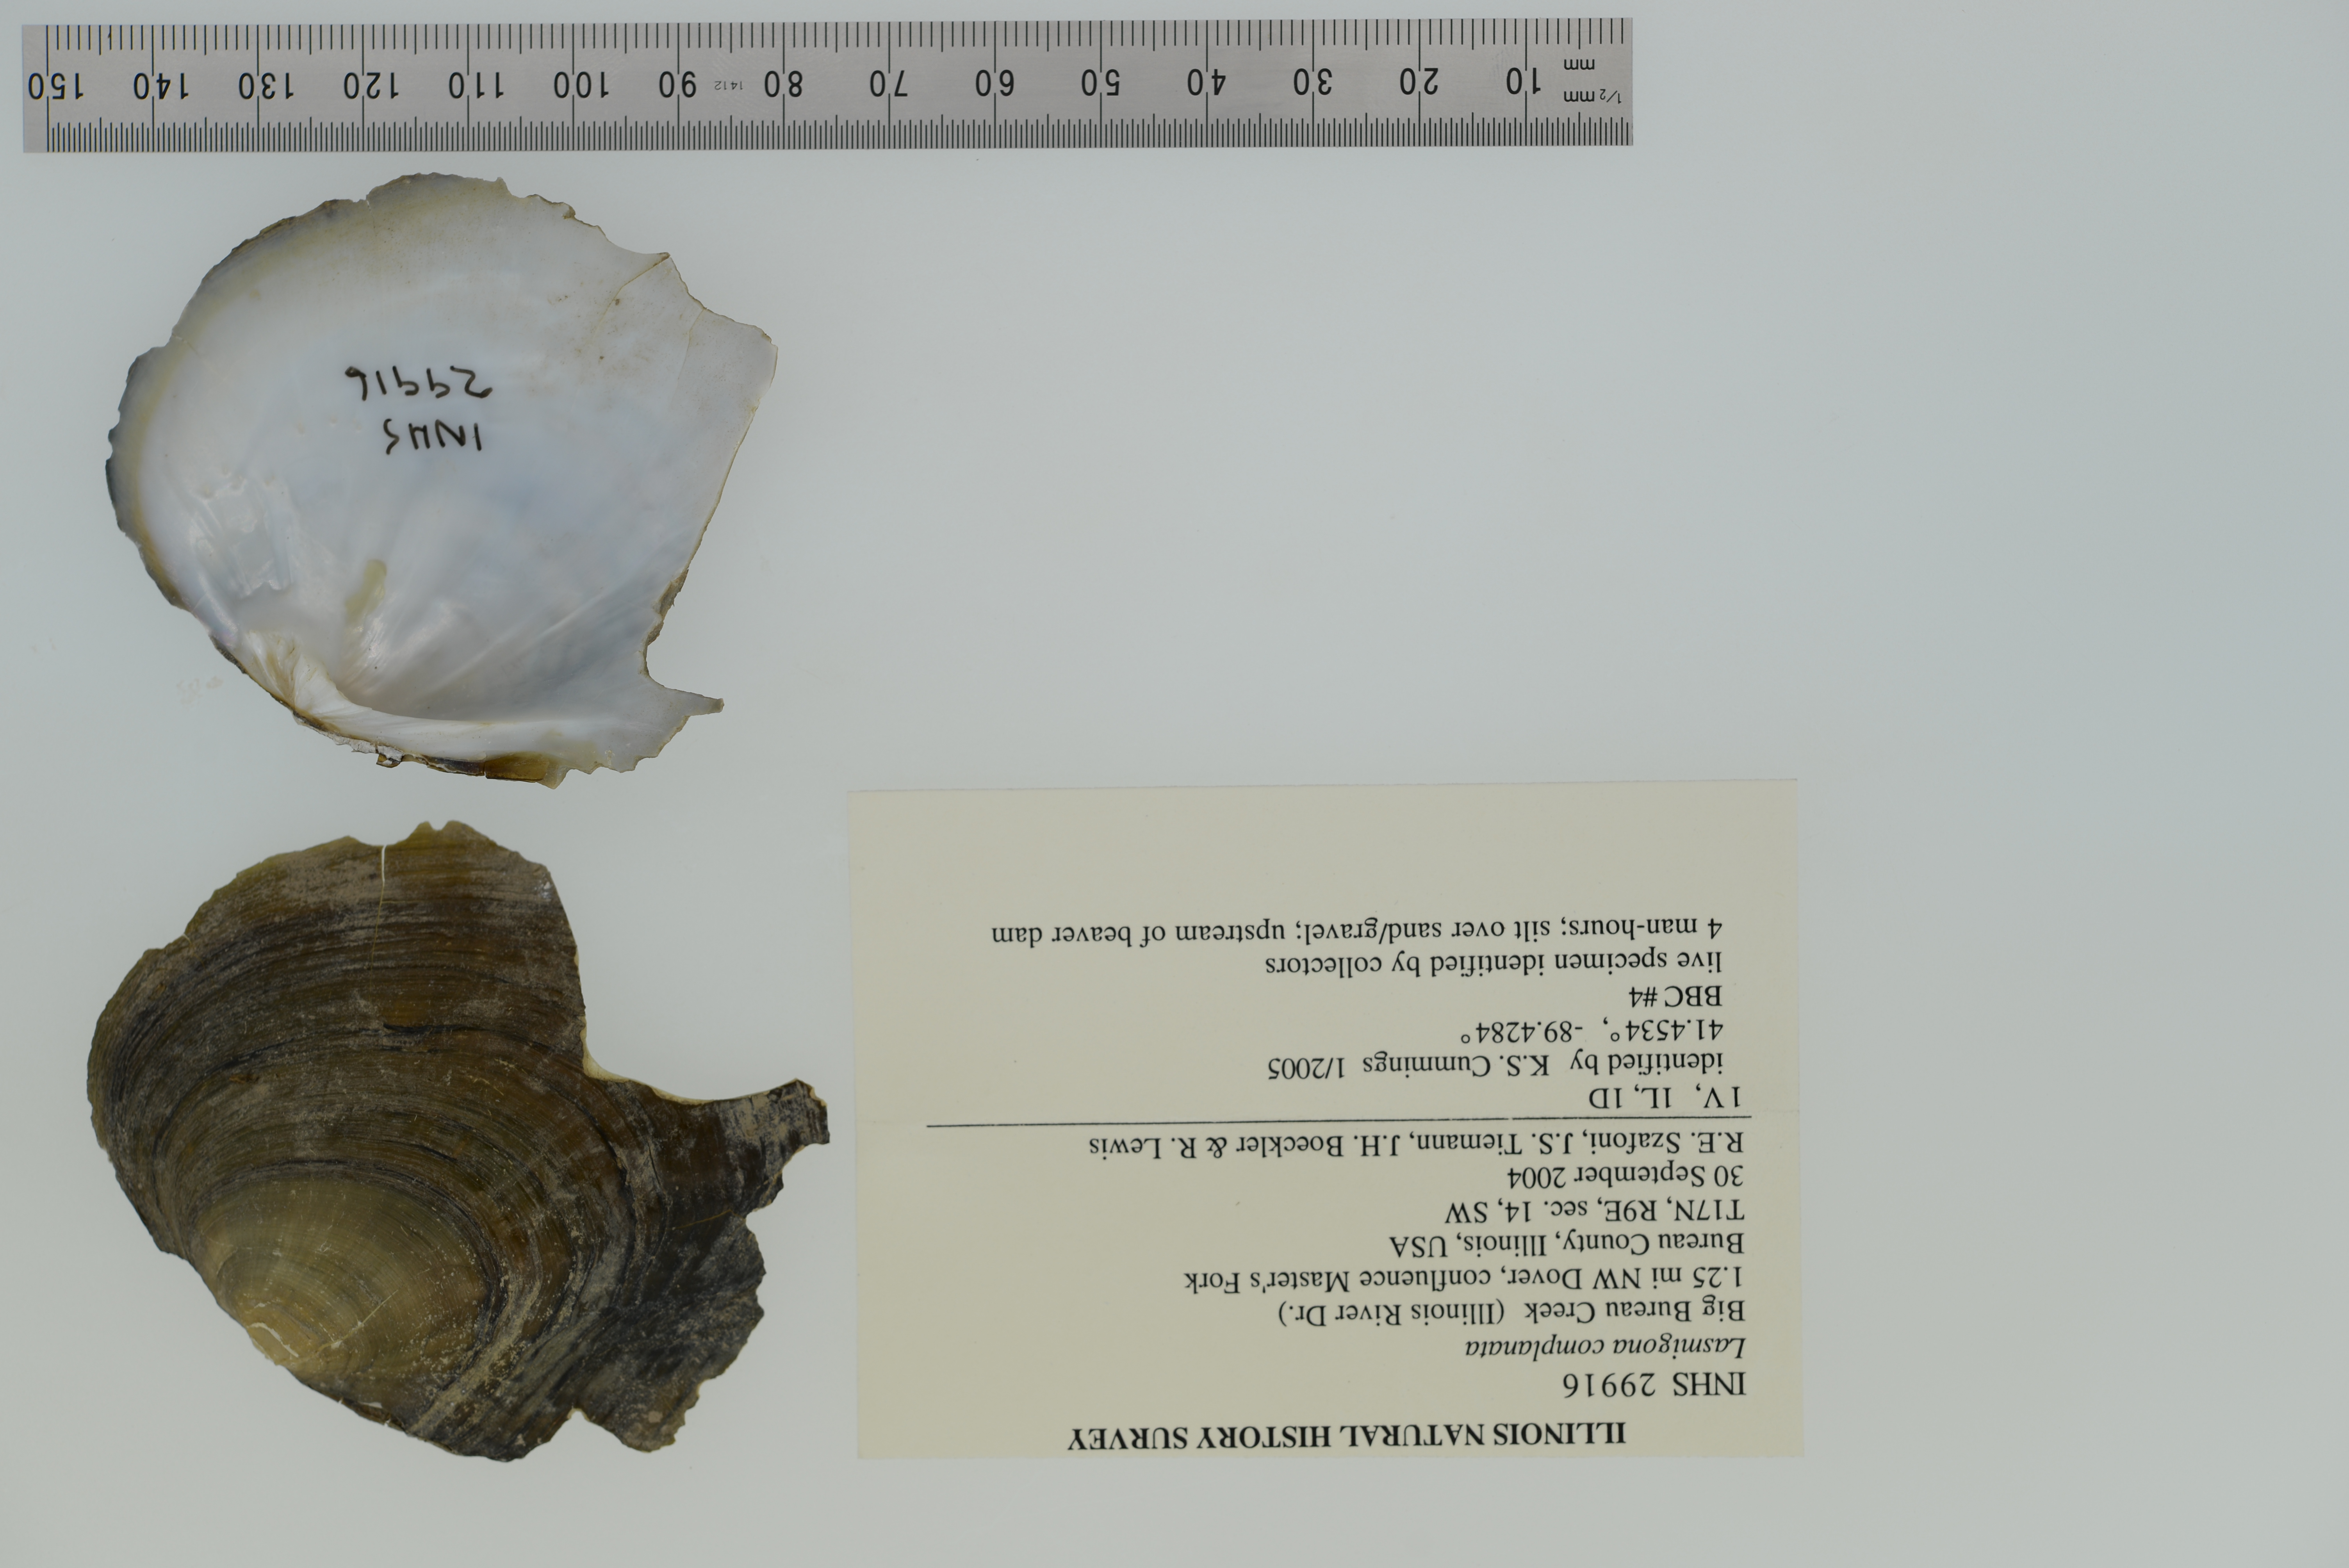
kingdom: Animalia
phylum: Mollusca
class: Bivalvia
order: Unionida
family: Unionidae
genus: Lasmigona
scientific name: Lasmigona complanata
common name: White heelsplitter
